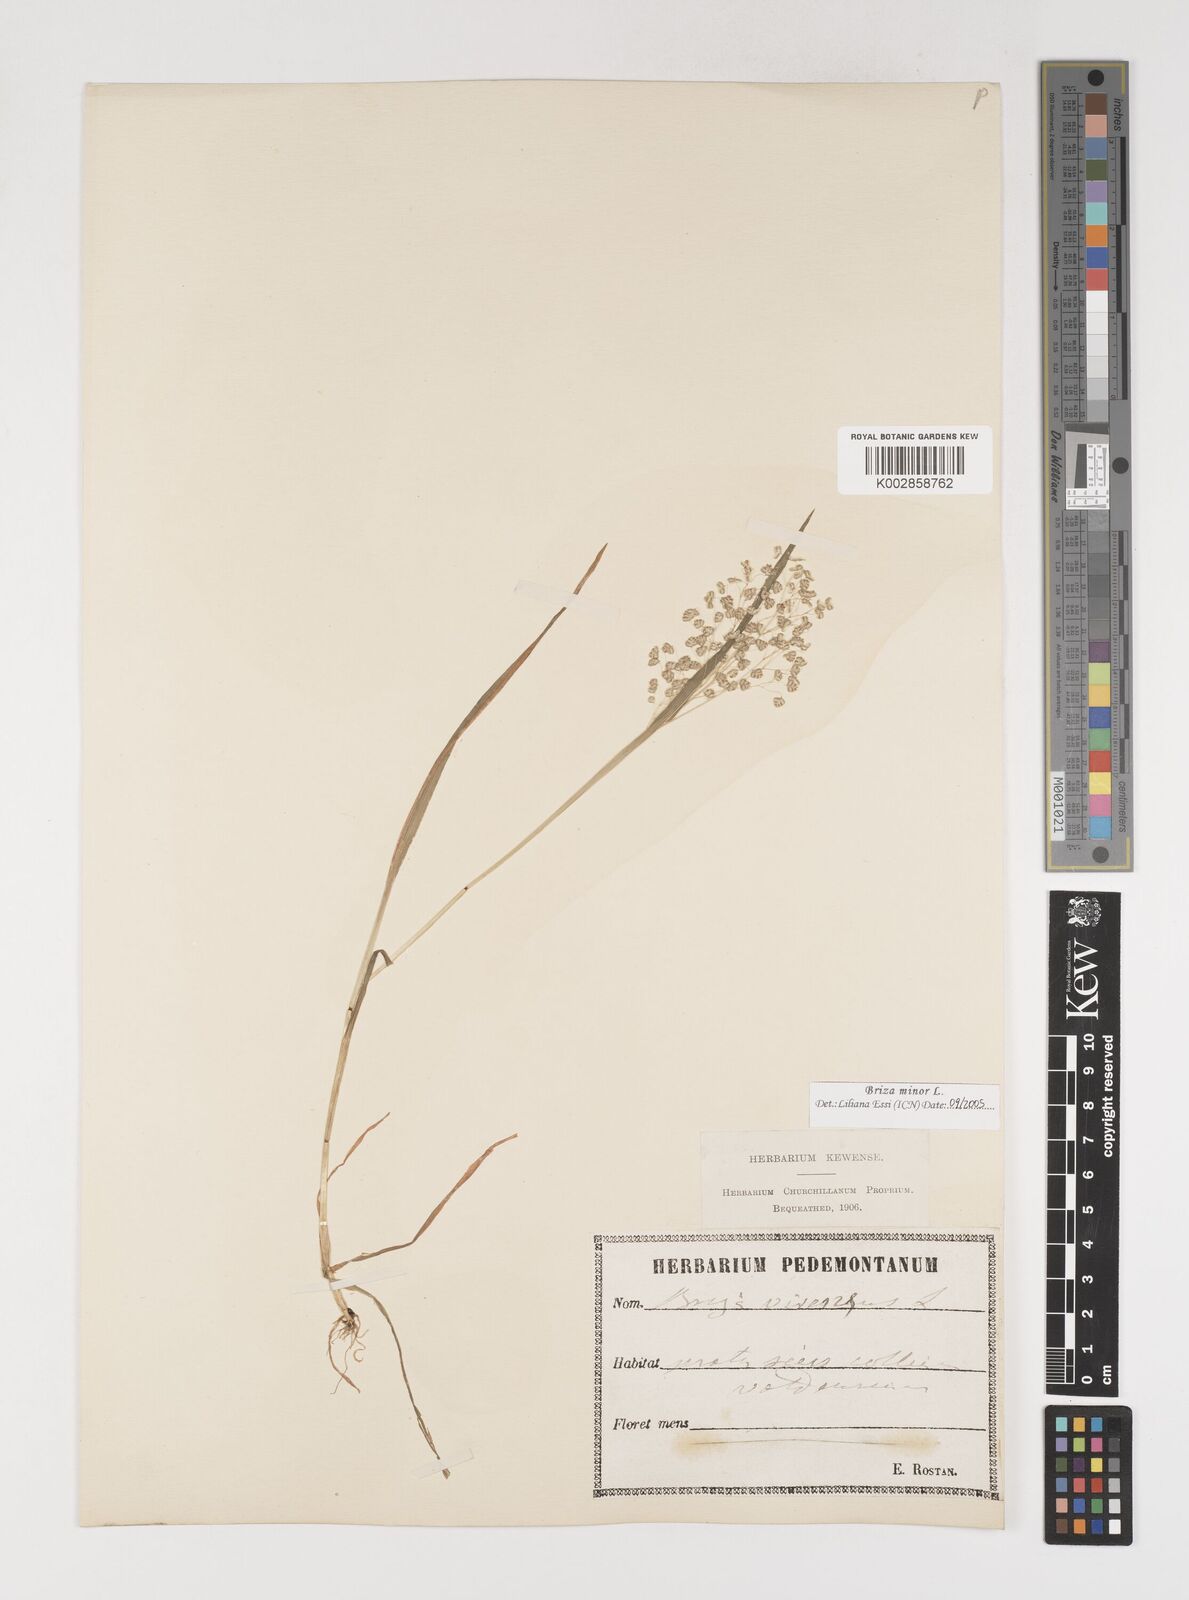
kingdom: Plantae
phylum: Tracheophyta
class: Liliopsida
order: Poales
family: Poaceae
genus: Briza
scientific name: Briza minor
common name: Lesser quaking-grass
